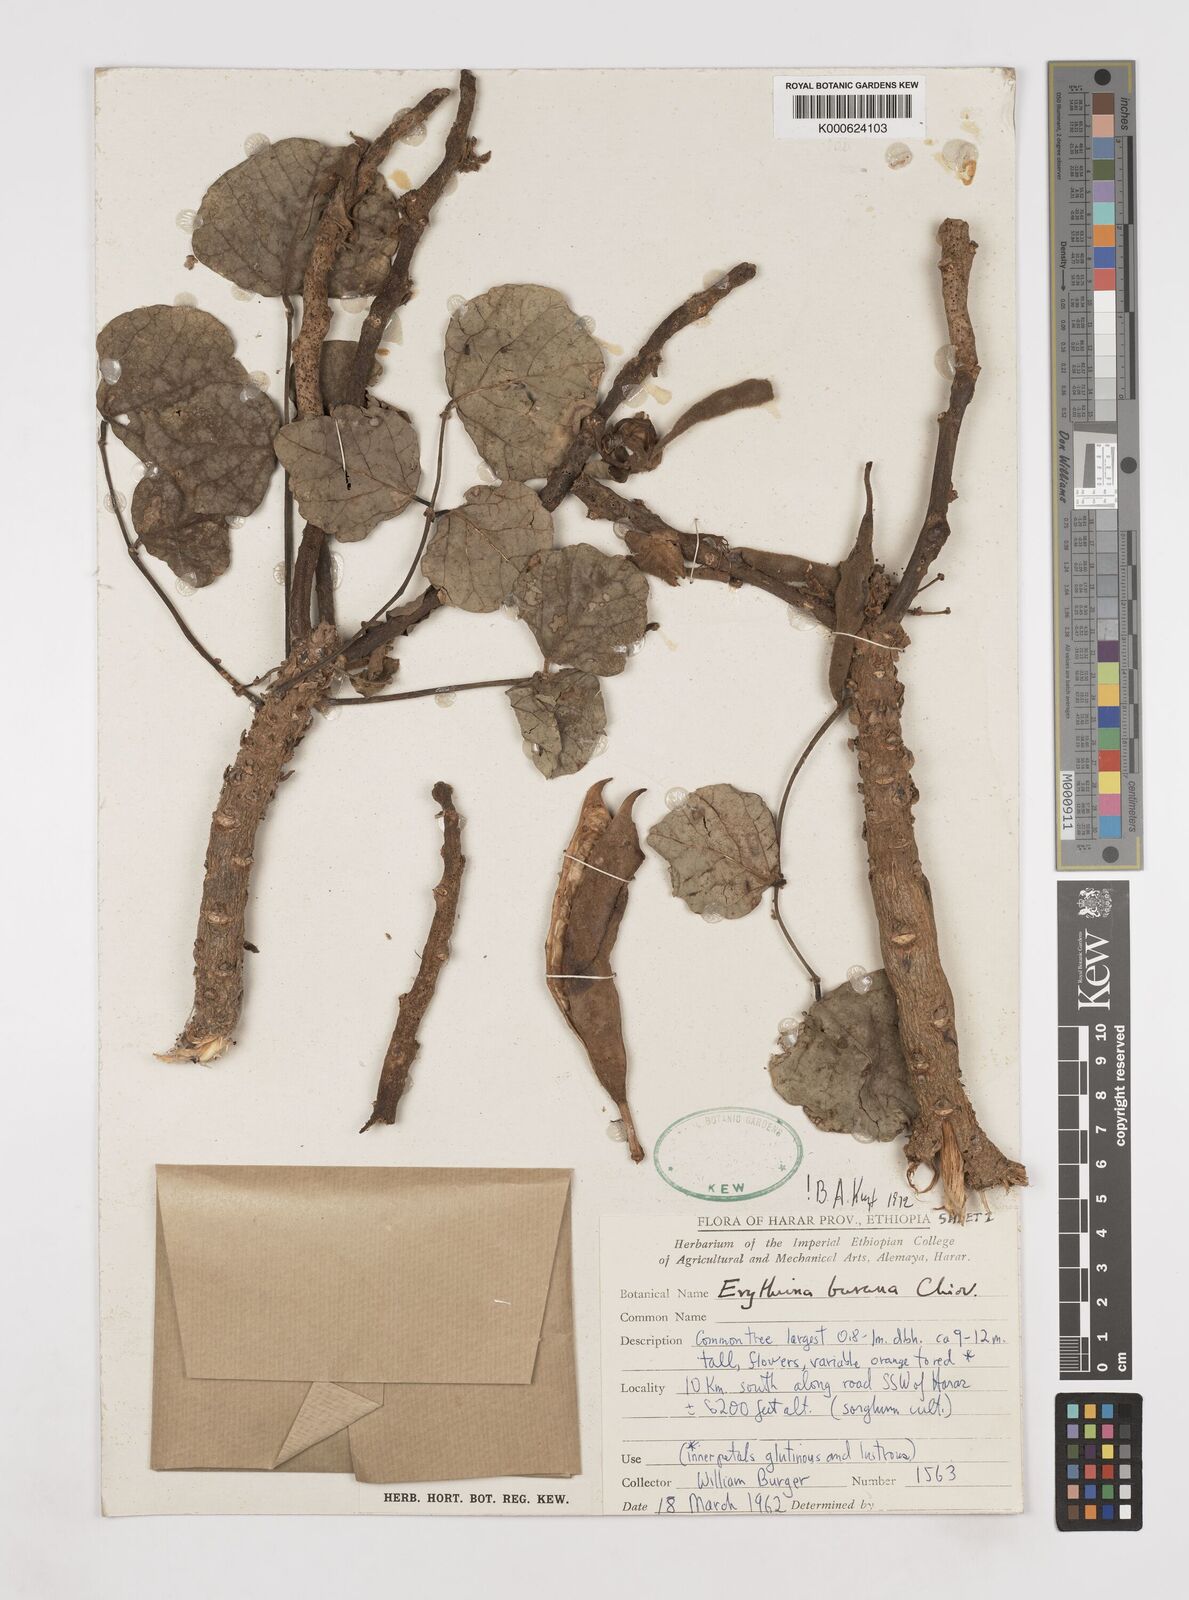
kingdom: Plantae
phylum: Tracheophyta
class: Magnoliopsida
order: Fabales
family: Fabaceae
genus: Erythrina
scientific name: Erythrina burana
